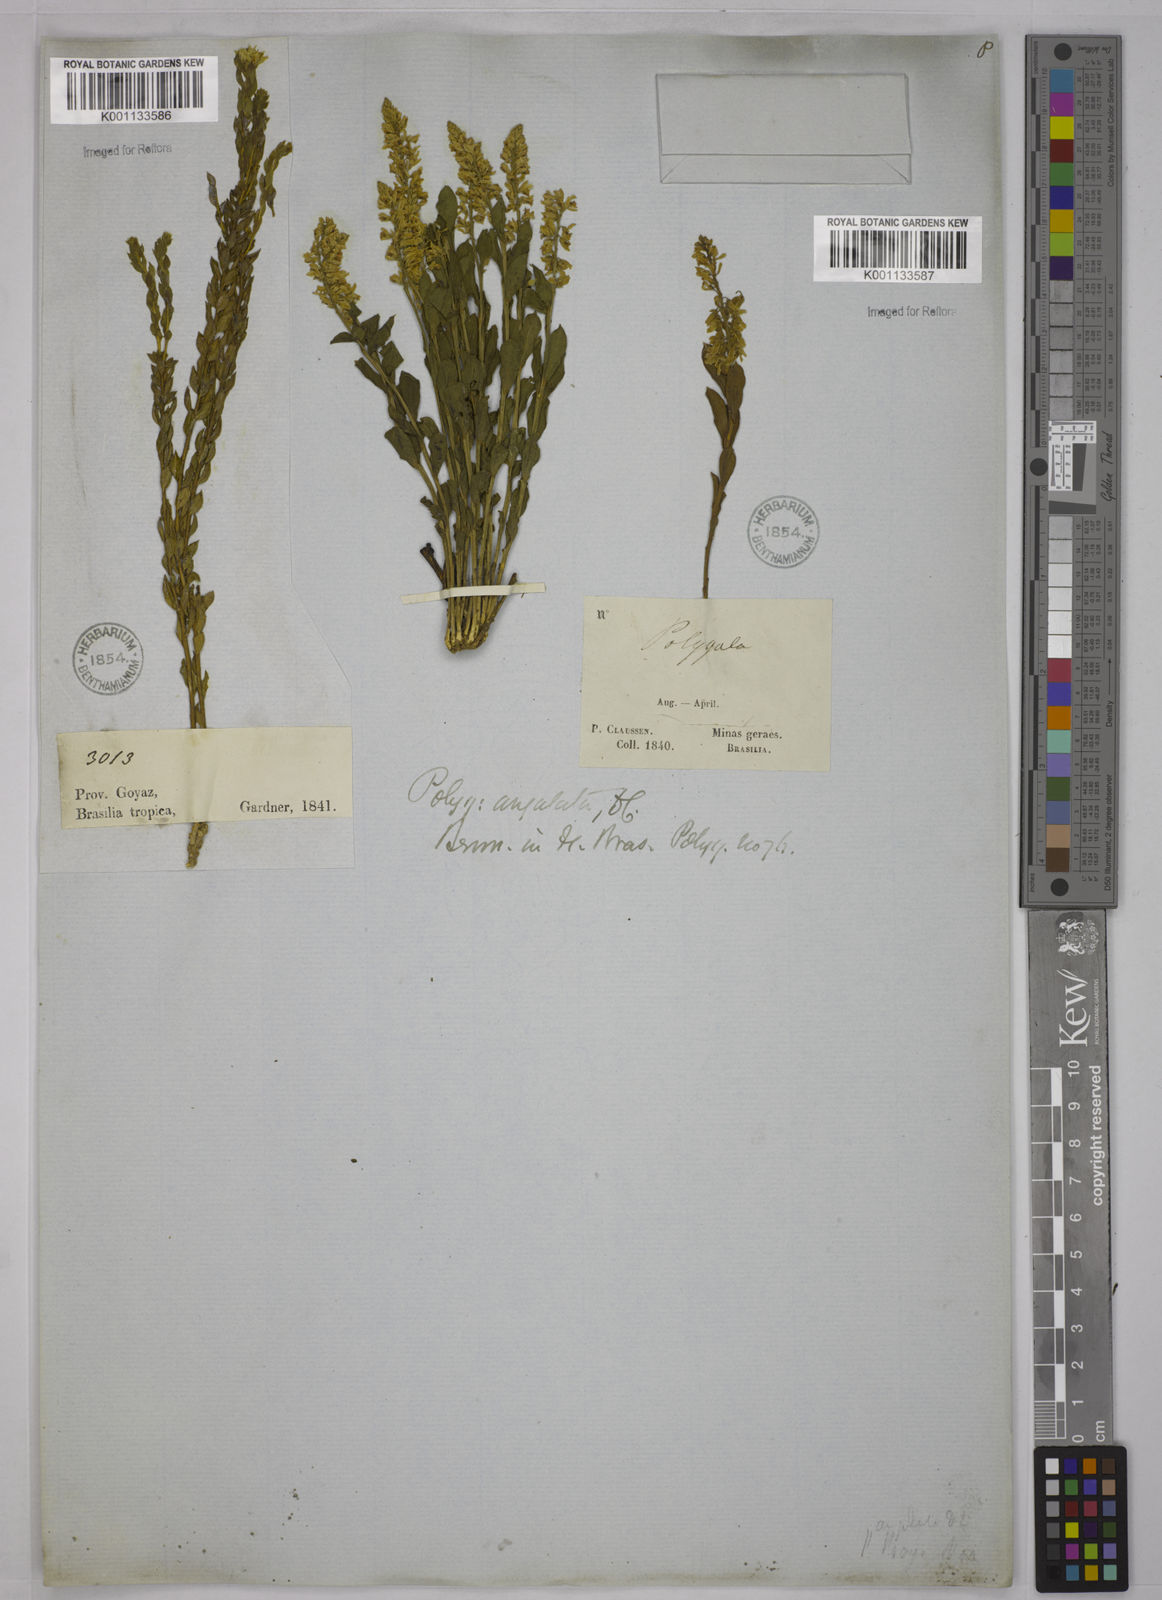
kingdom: Plantae
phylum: Tracheophyta
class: Magnoliopsida
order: Fabales
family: Polygalaceae
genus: Polygala
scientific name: Polygala poaya
